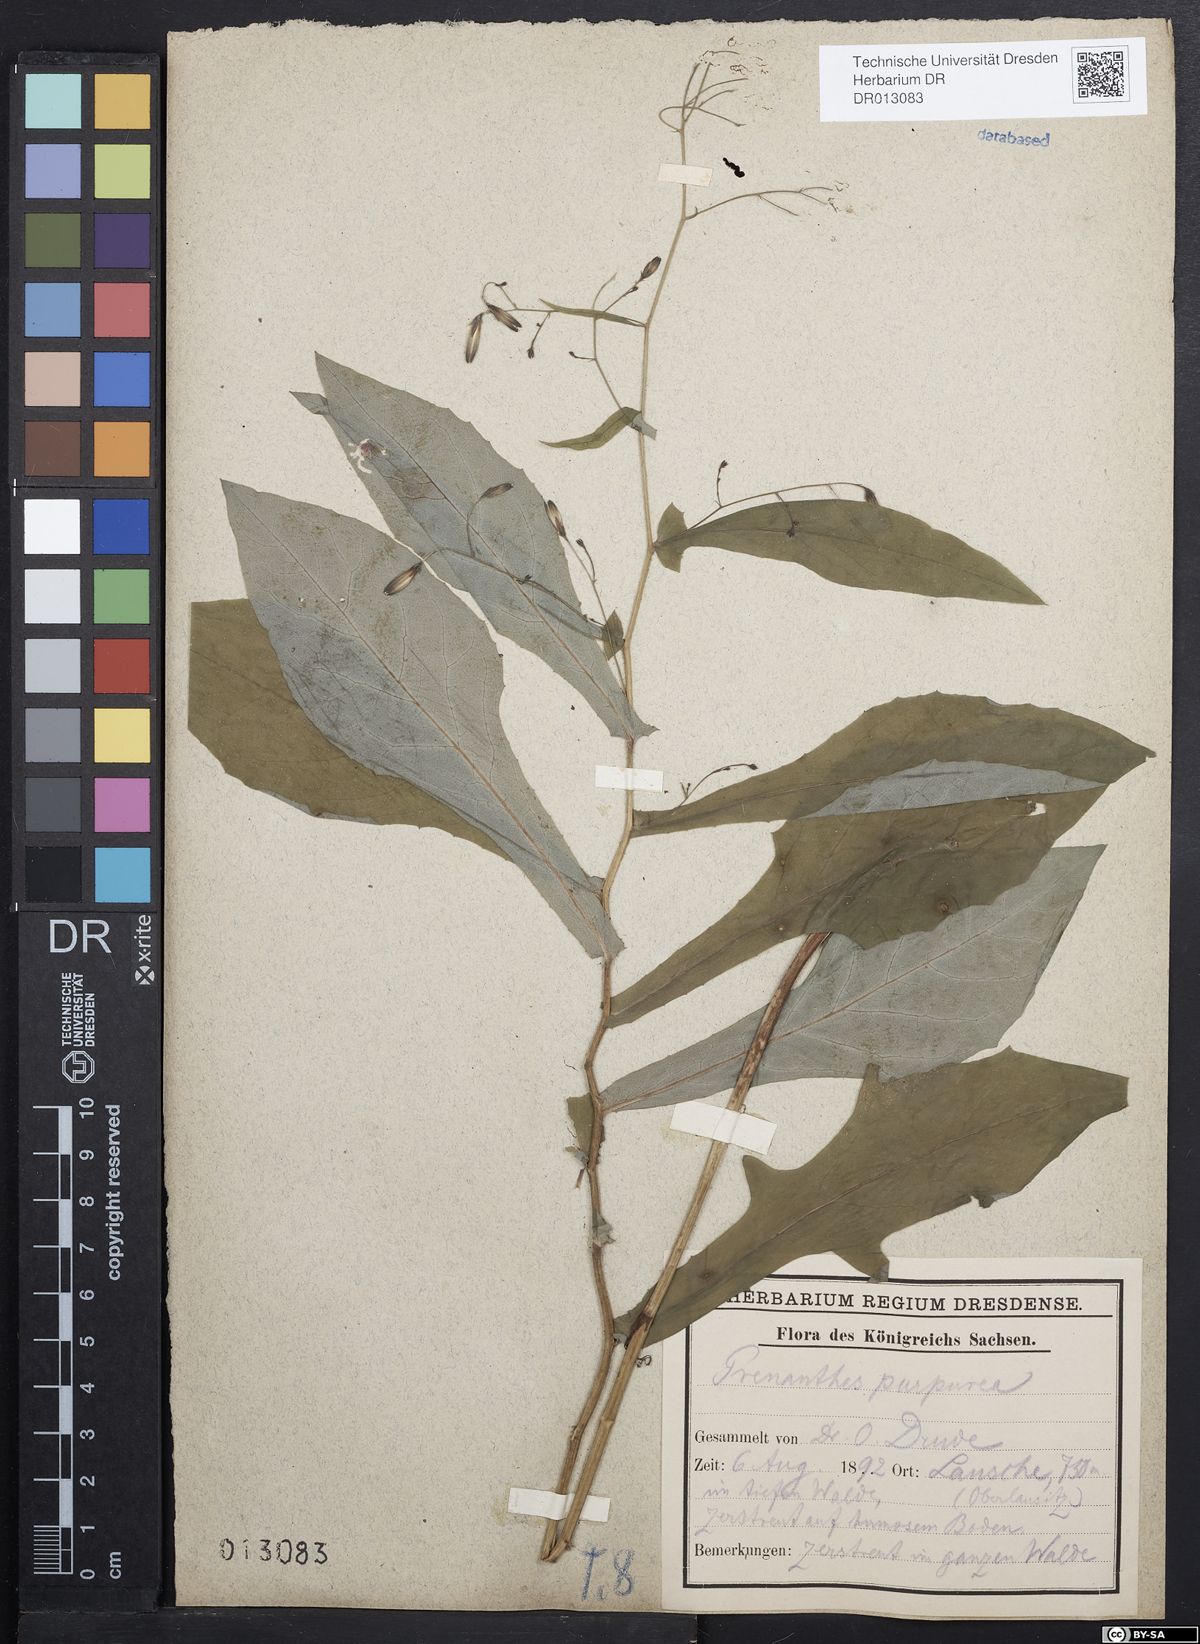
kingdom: Plantae
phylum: Tracheophyta
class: Magnoliopsida
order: Asterales
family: Asteraceae
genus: Prenanthes
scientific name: Prenanthes purpurea
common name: Purple lettuce
